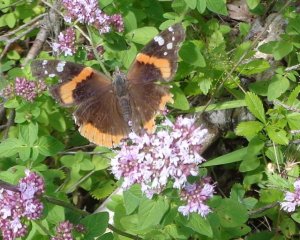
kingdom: Animalia
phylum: Arthropoda
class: Insecta
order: Lepidoptera
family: Nymphalidae
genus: Vanessa
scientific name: Vanessa atalanta
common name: Red Admiral
